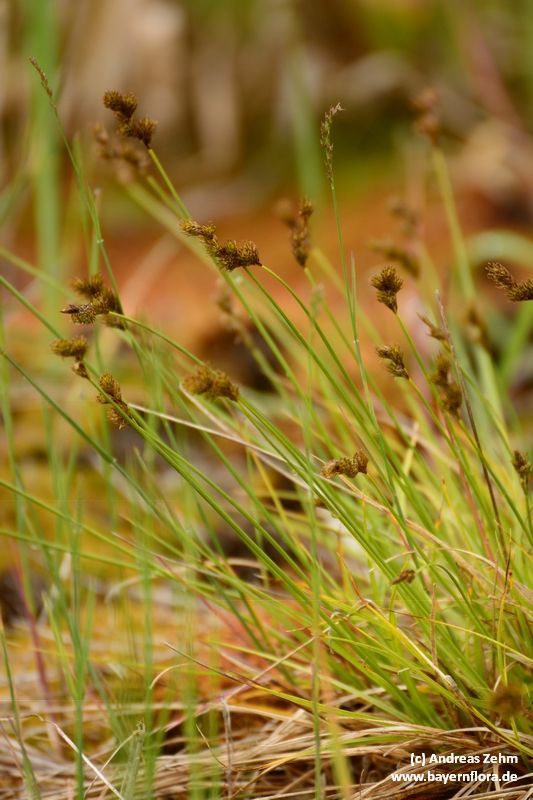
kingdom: Plantae
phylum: Tracheophyta
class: Liliopsida
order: Poales
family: Cyperaceae
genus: Carex
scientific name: Carex leporina
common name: Oval sedge
